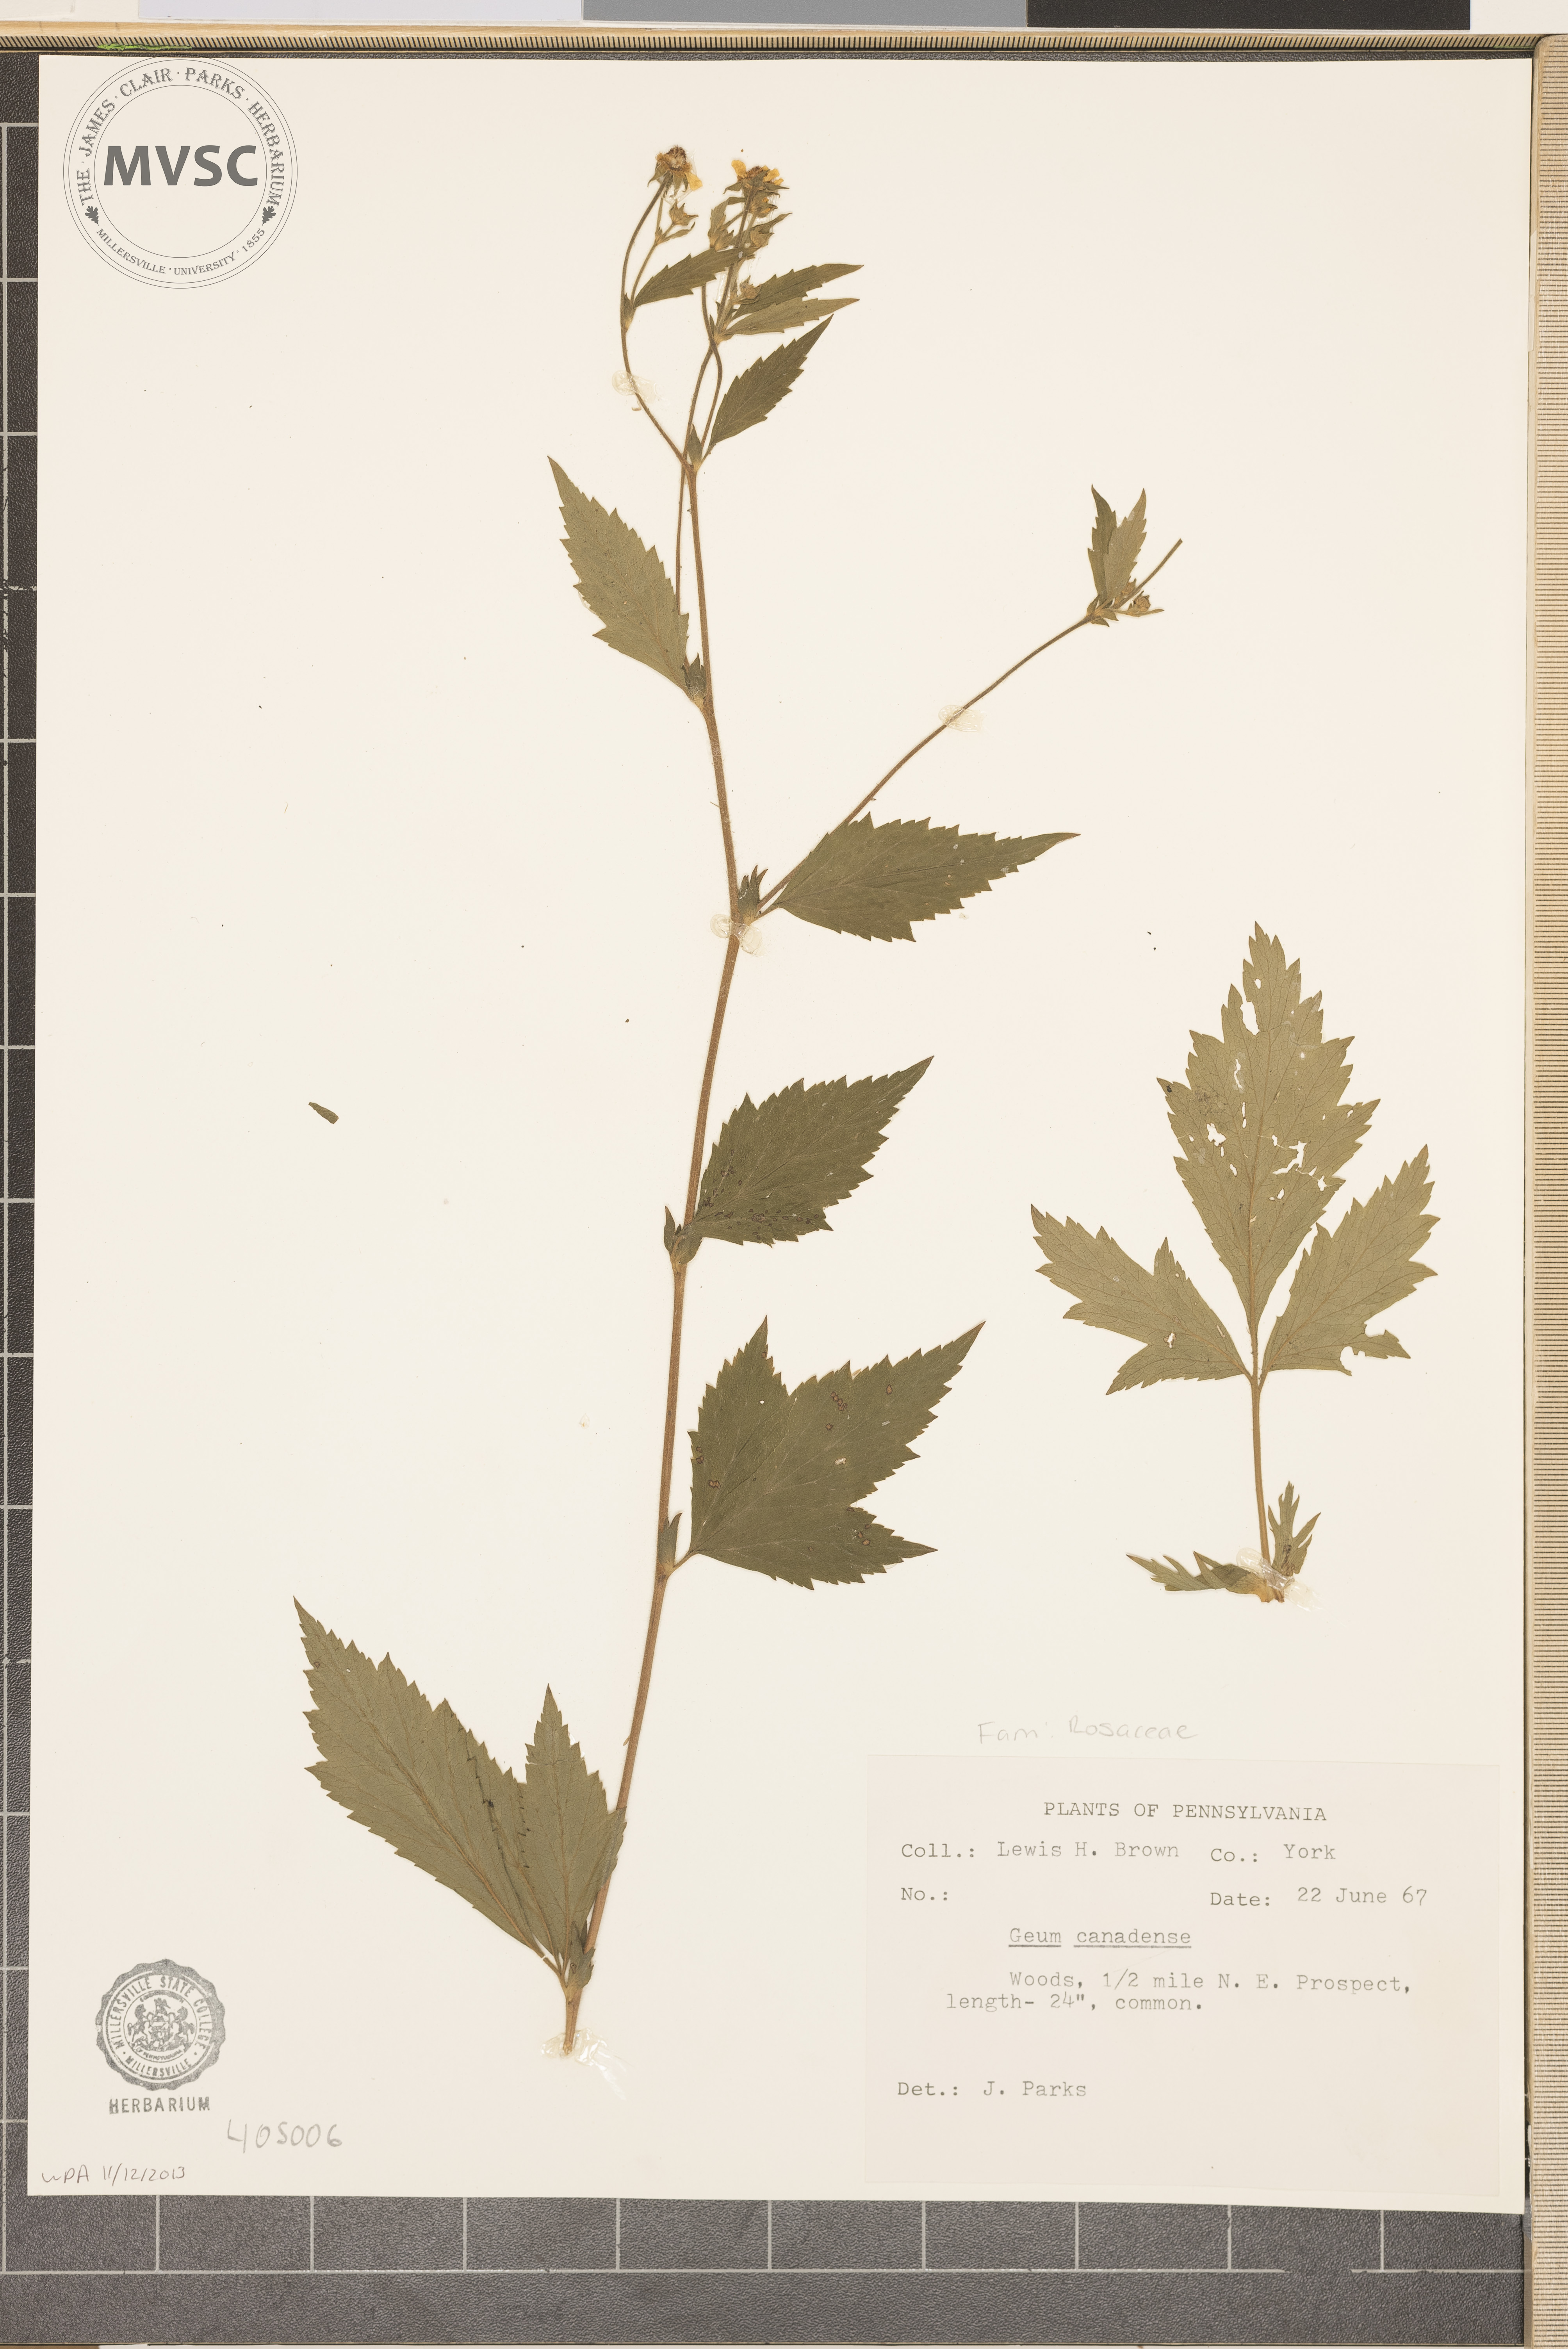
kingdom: Plantae
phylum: Tracheophyta
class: Magnoliopsida
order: Rosales
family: Rosaceae
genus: Geum
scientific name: Geum canadense
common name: White avens
